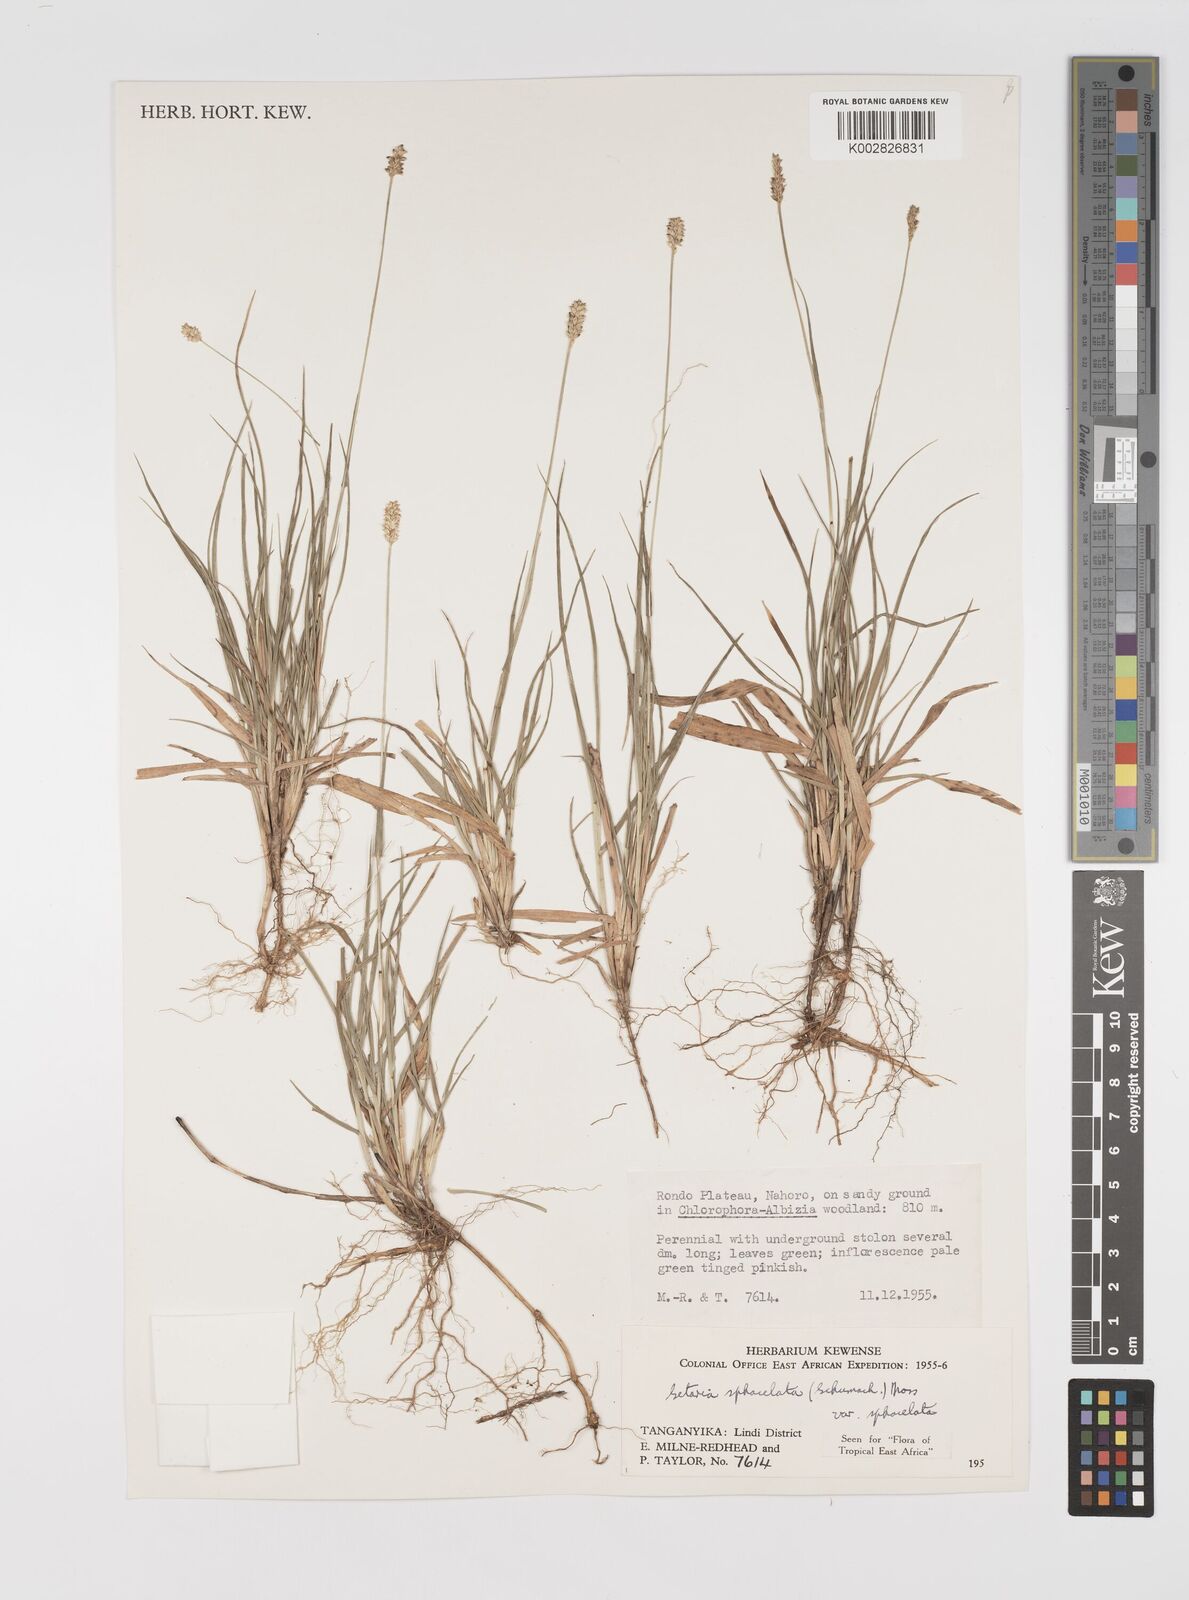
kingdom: Plantae
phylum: Tracheophyta
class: Liliopsida
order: Poales
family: Poaceae
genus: Setaria
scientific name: Setaria sphacelata
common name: African bristlegrass
